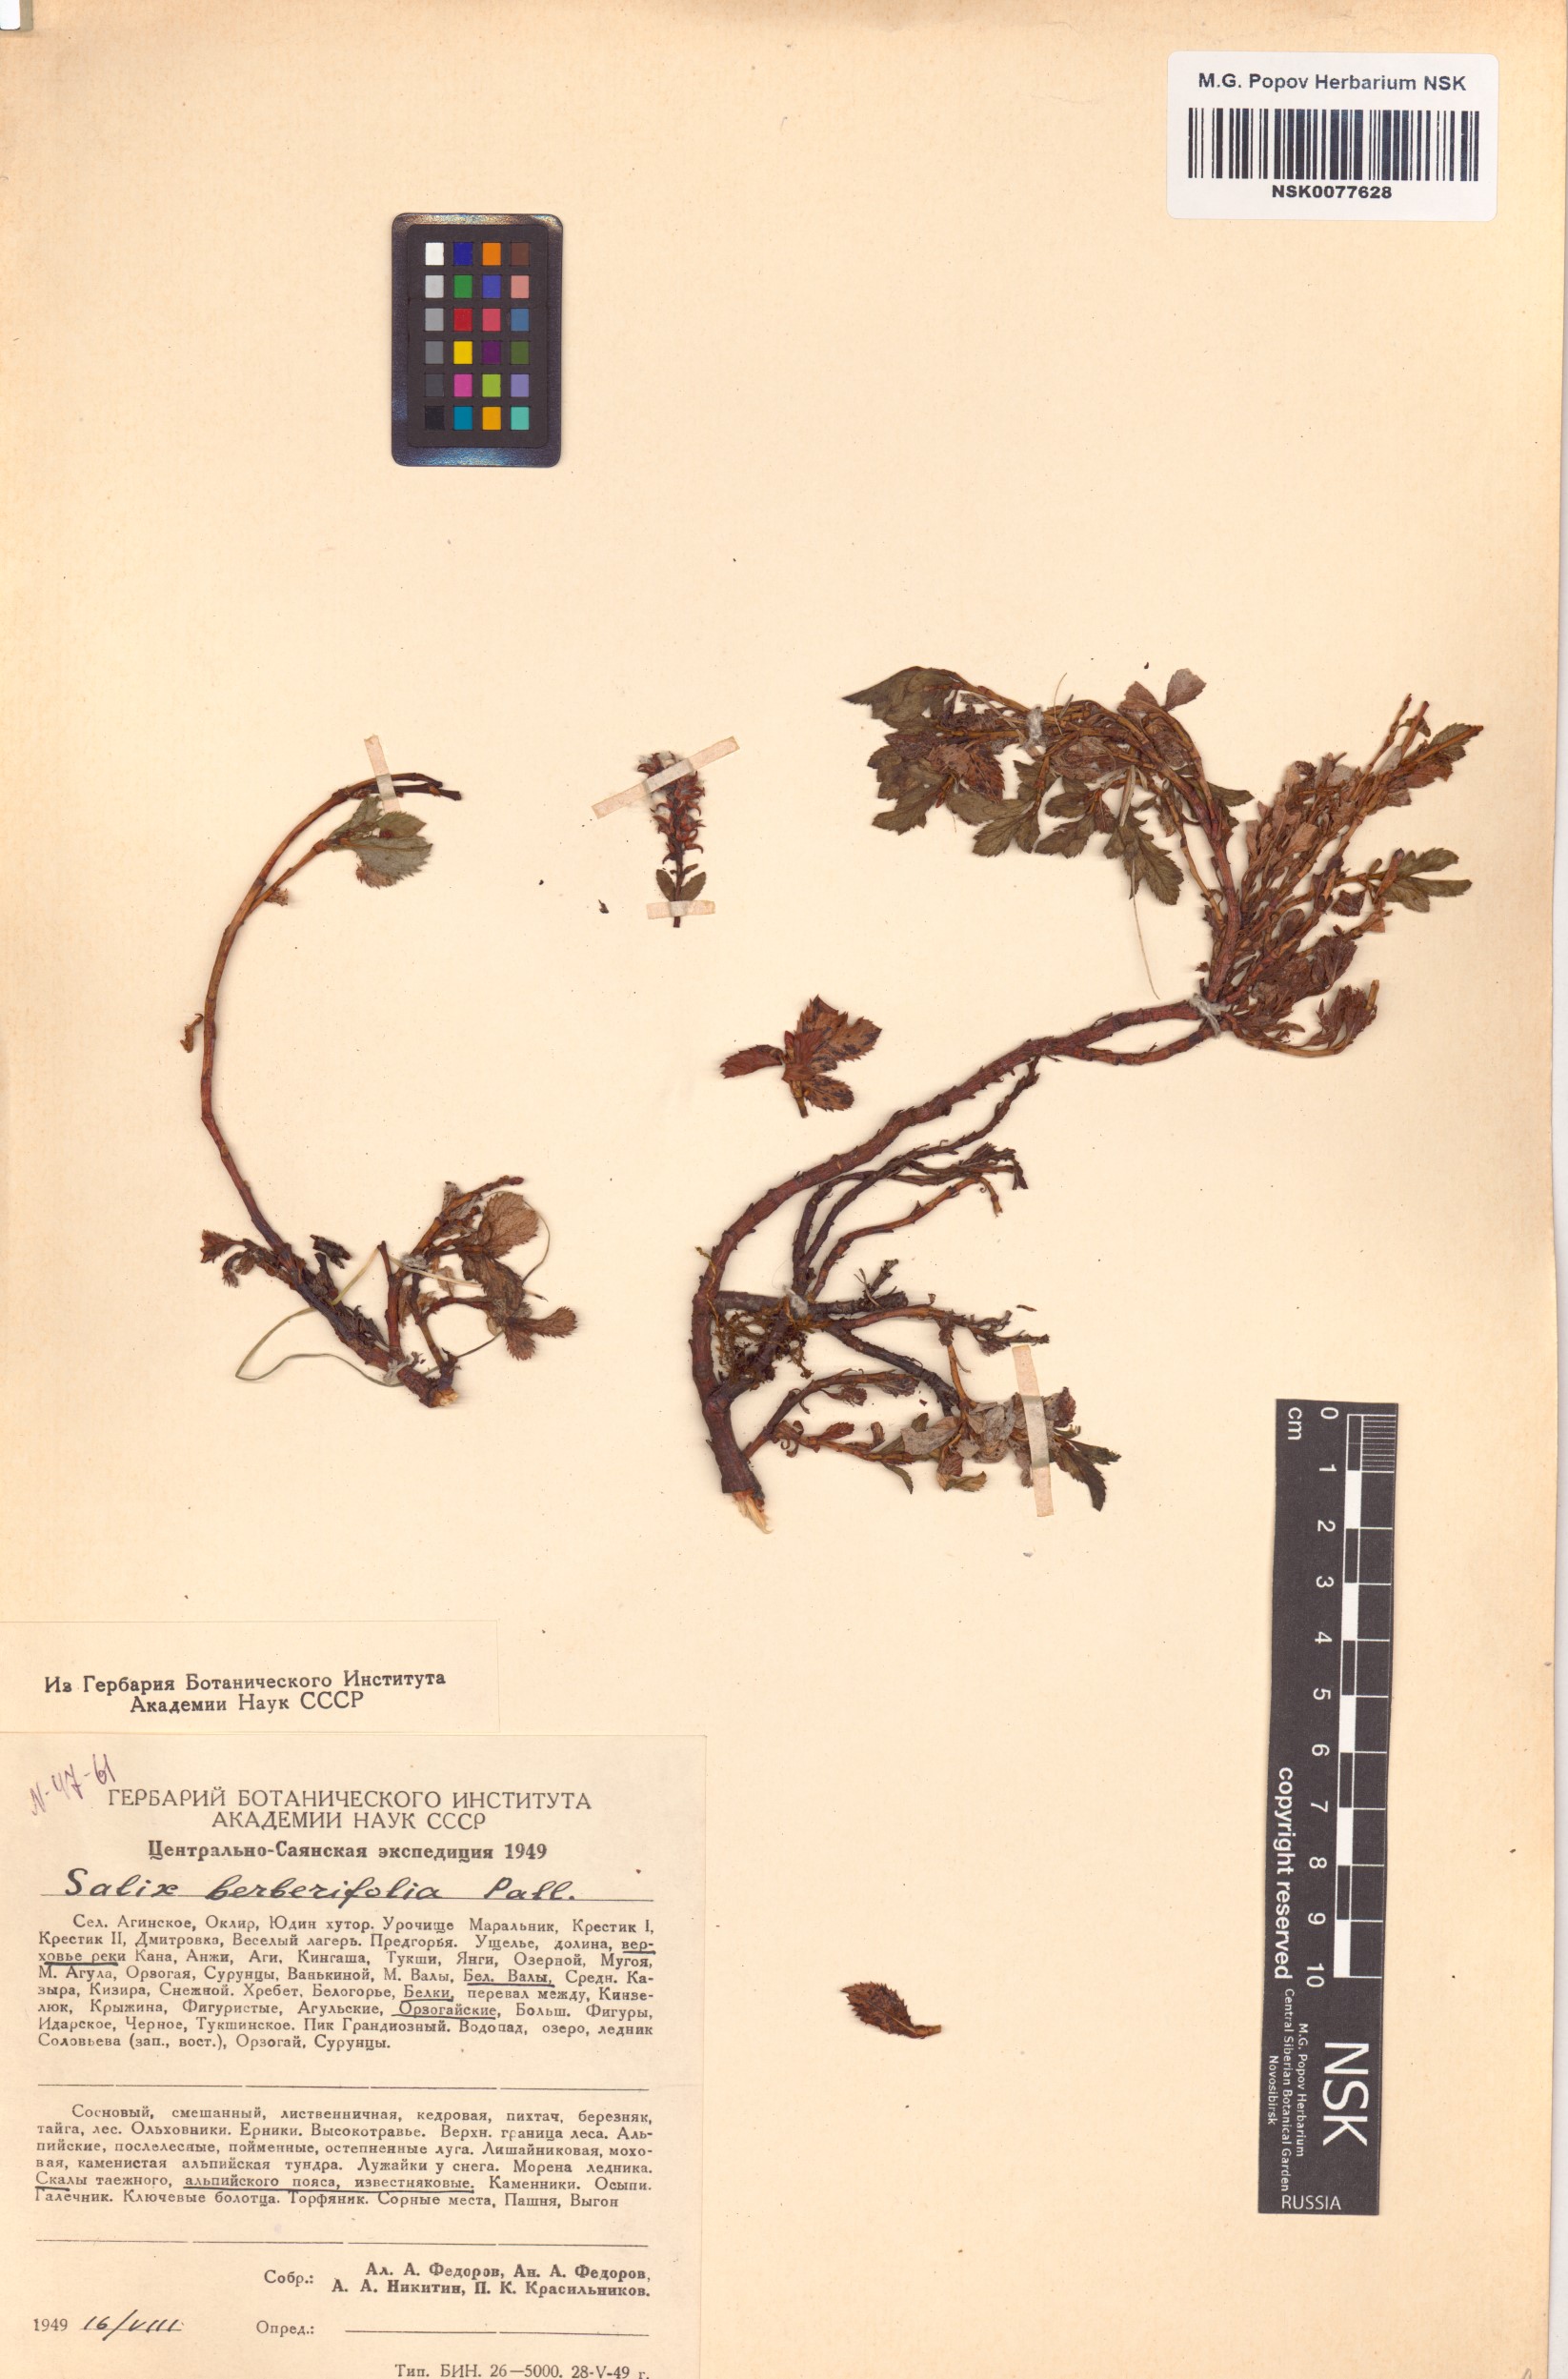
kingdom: Plantae
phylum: Tracheophyta
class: Magnoliopsida
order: Malpighiales
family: Salicaceae
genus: Salix
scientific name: Salix berberifolia
